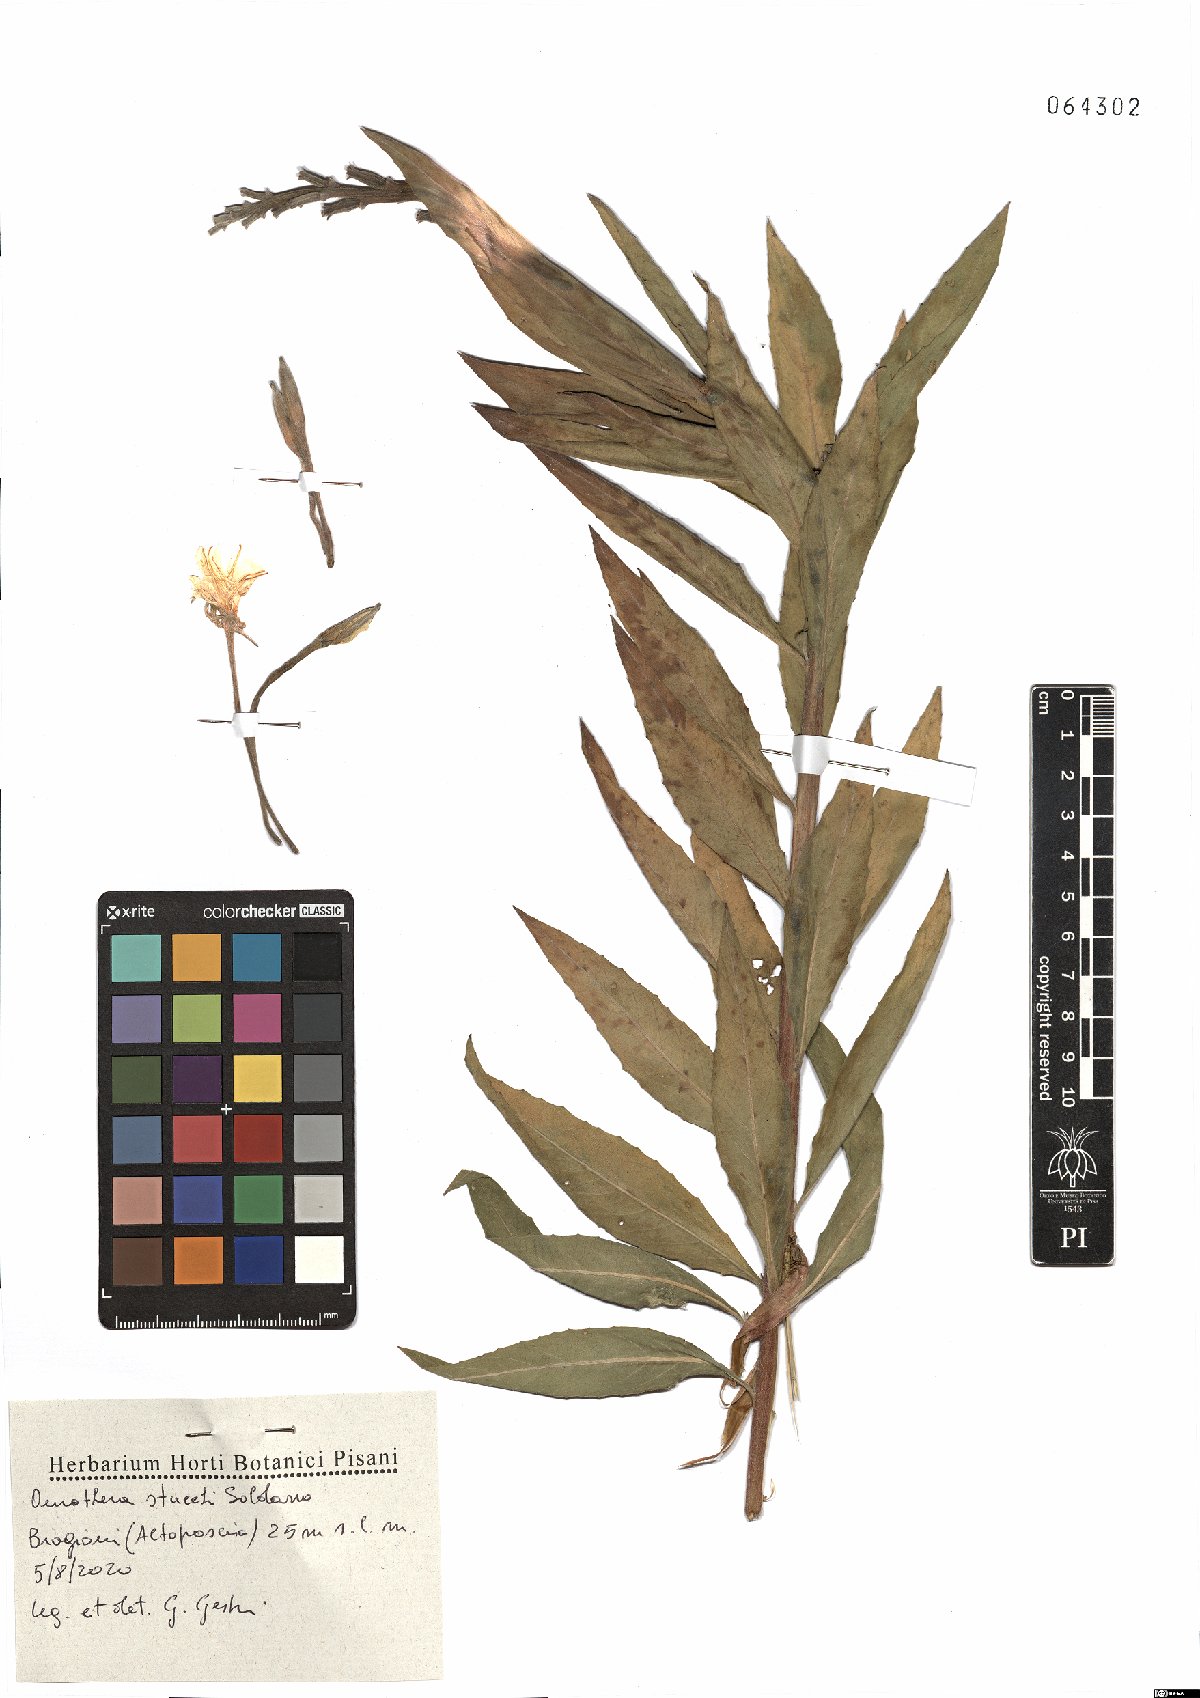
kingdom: Plantae
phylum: Tracheophyta
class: Magnoliopsida
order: Myrtales
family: Onagraceae
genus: Oenothera
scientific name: Oenothera stucchii
